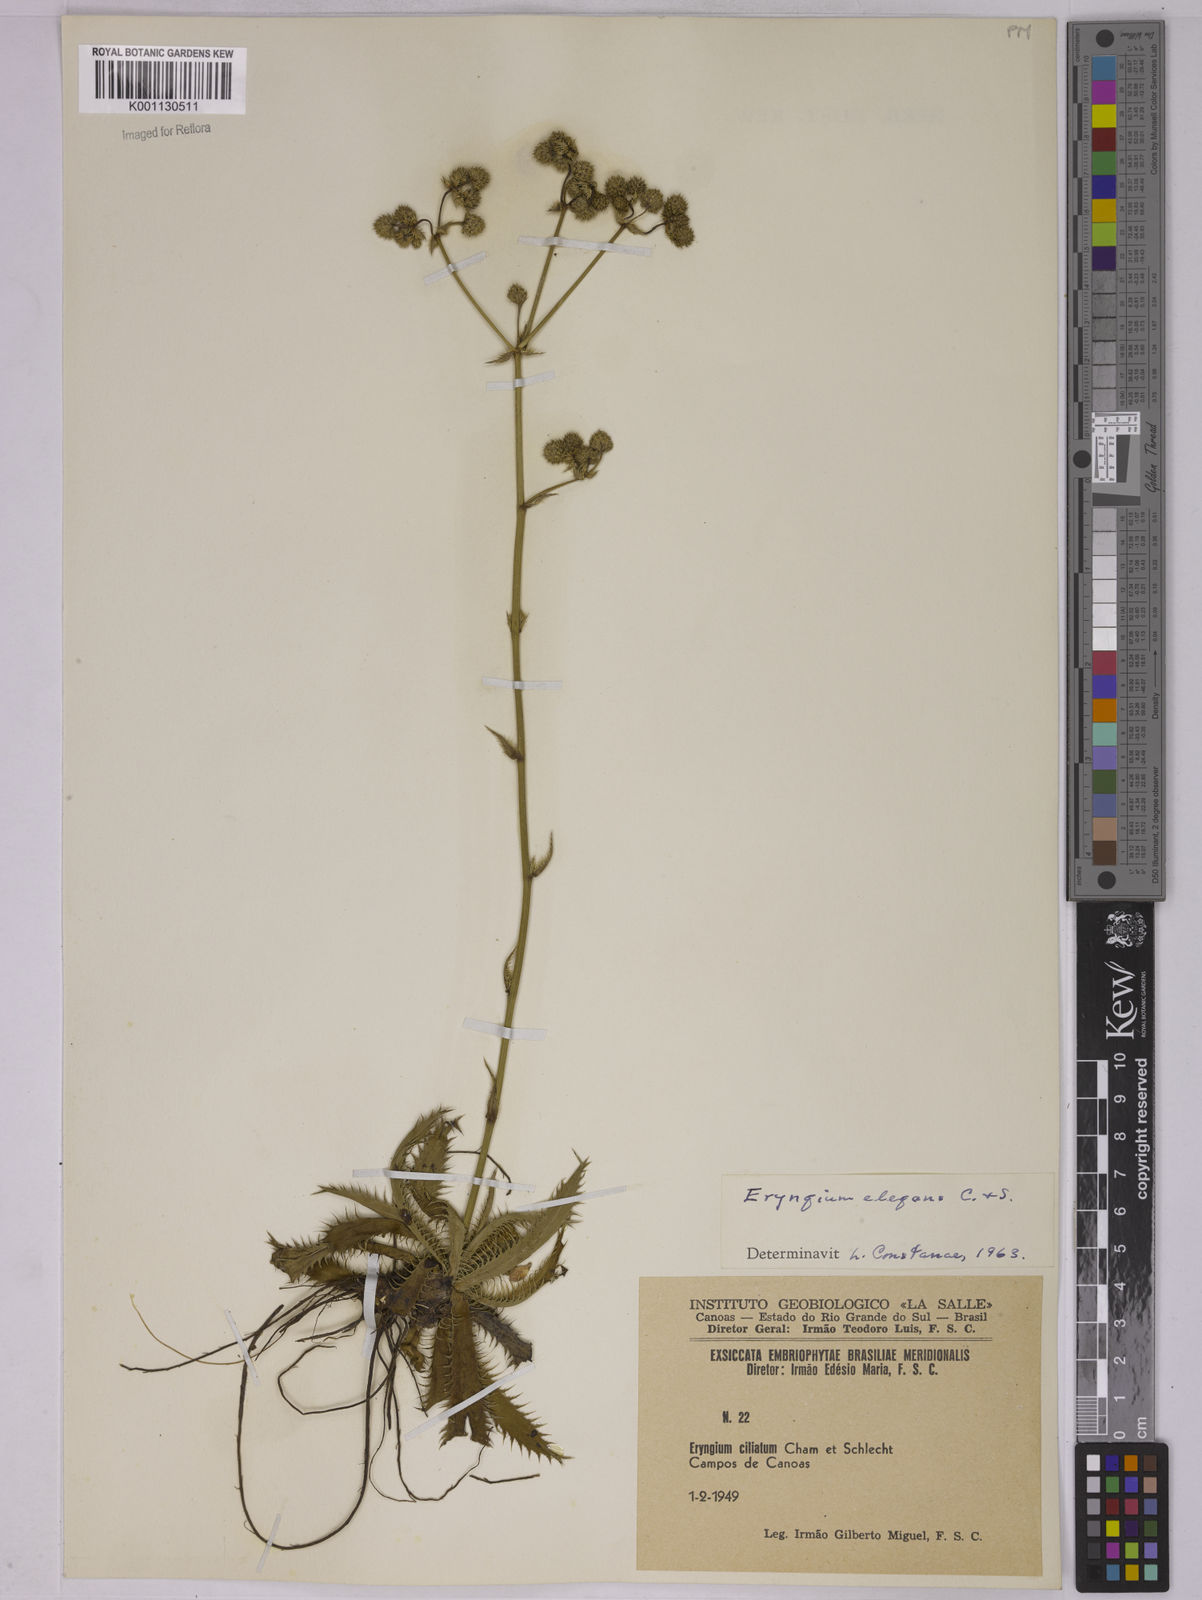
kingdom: Plantae
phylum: Tracheophyta
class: Magnoliopsida
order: Apiales
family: Apiaceae
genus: Eryngium
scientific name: Eryngium elegans
